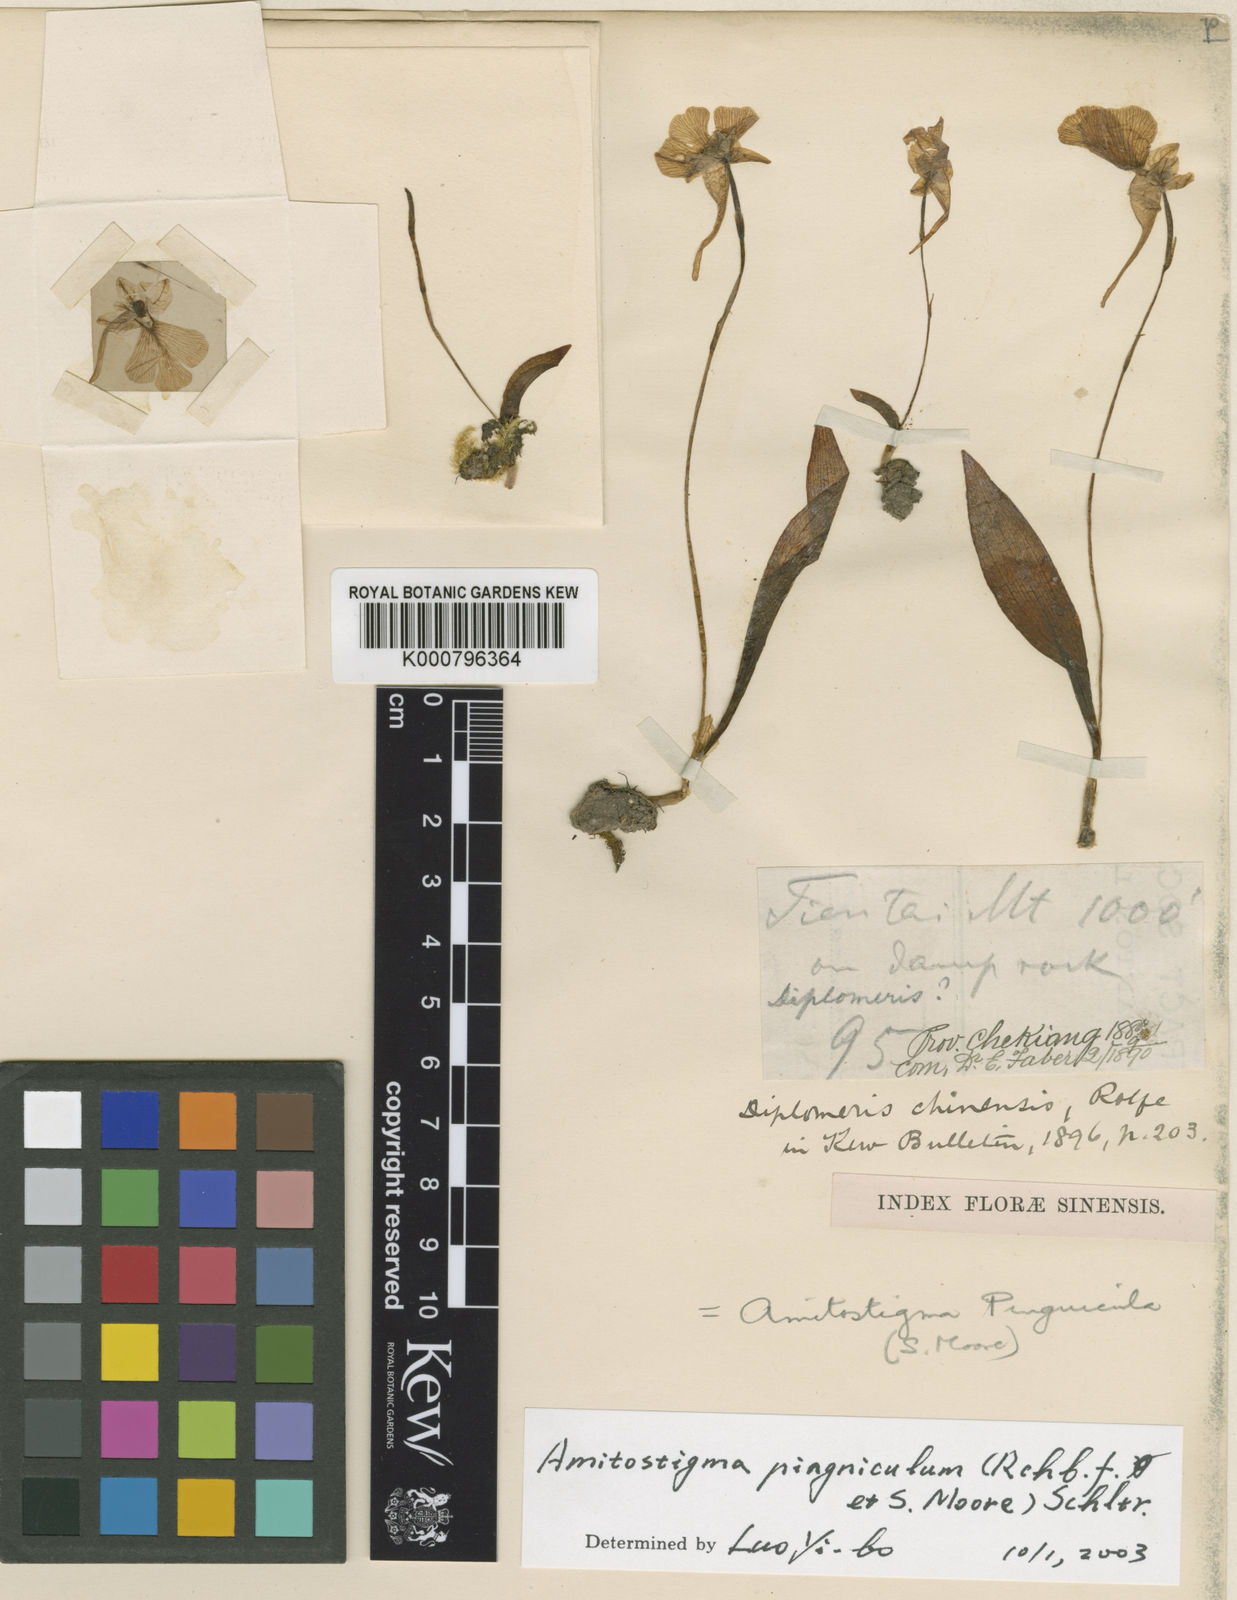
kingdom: Plantae
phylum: Tracheophyta
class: Liliopsida
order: Asparagales
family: Orchidaceae
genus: Hemipilia
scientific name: Hemipilia pinguicula
